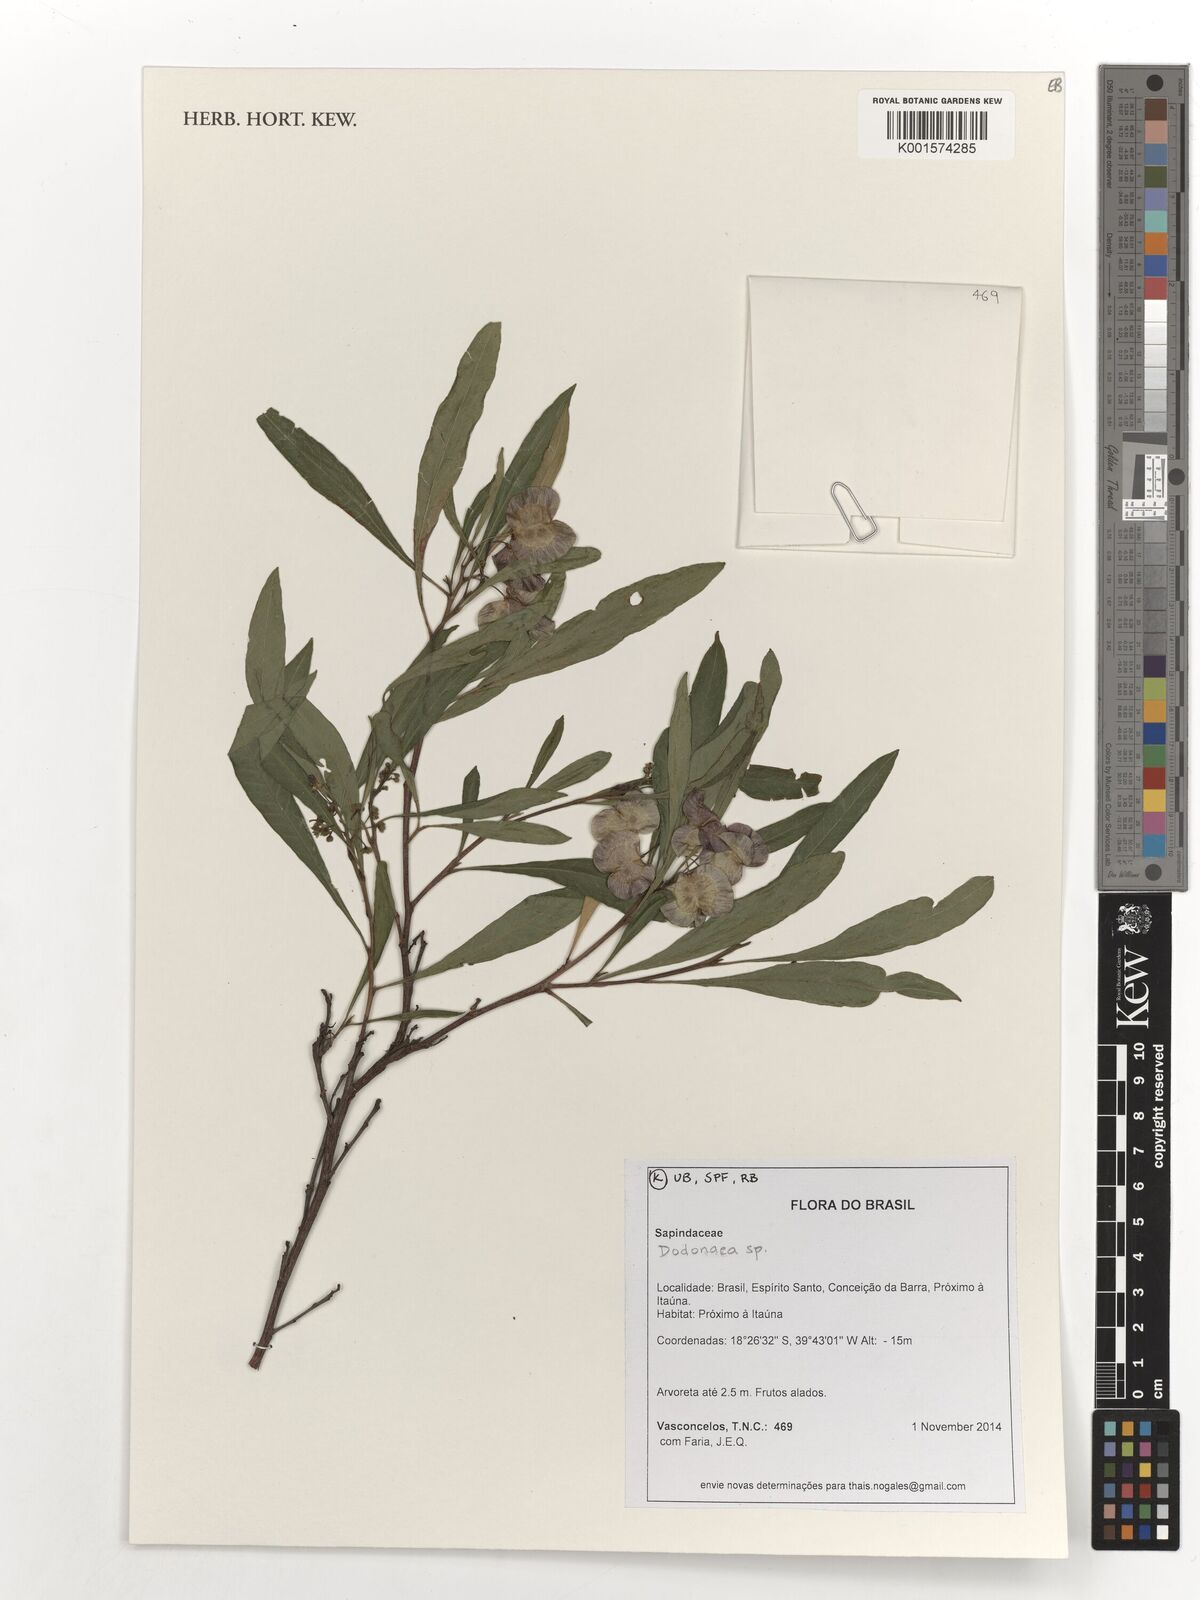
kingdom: Plantae
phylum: Tracheophyta
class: Magnoliopsida
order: Sapindales
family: Sapindaceae
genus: Dodonaea
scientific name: Dodonaea
